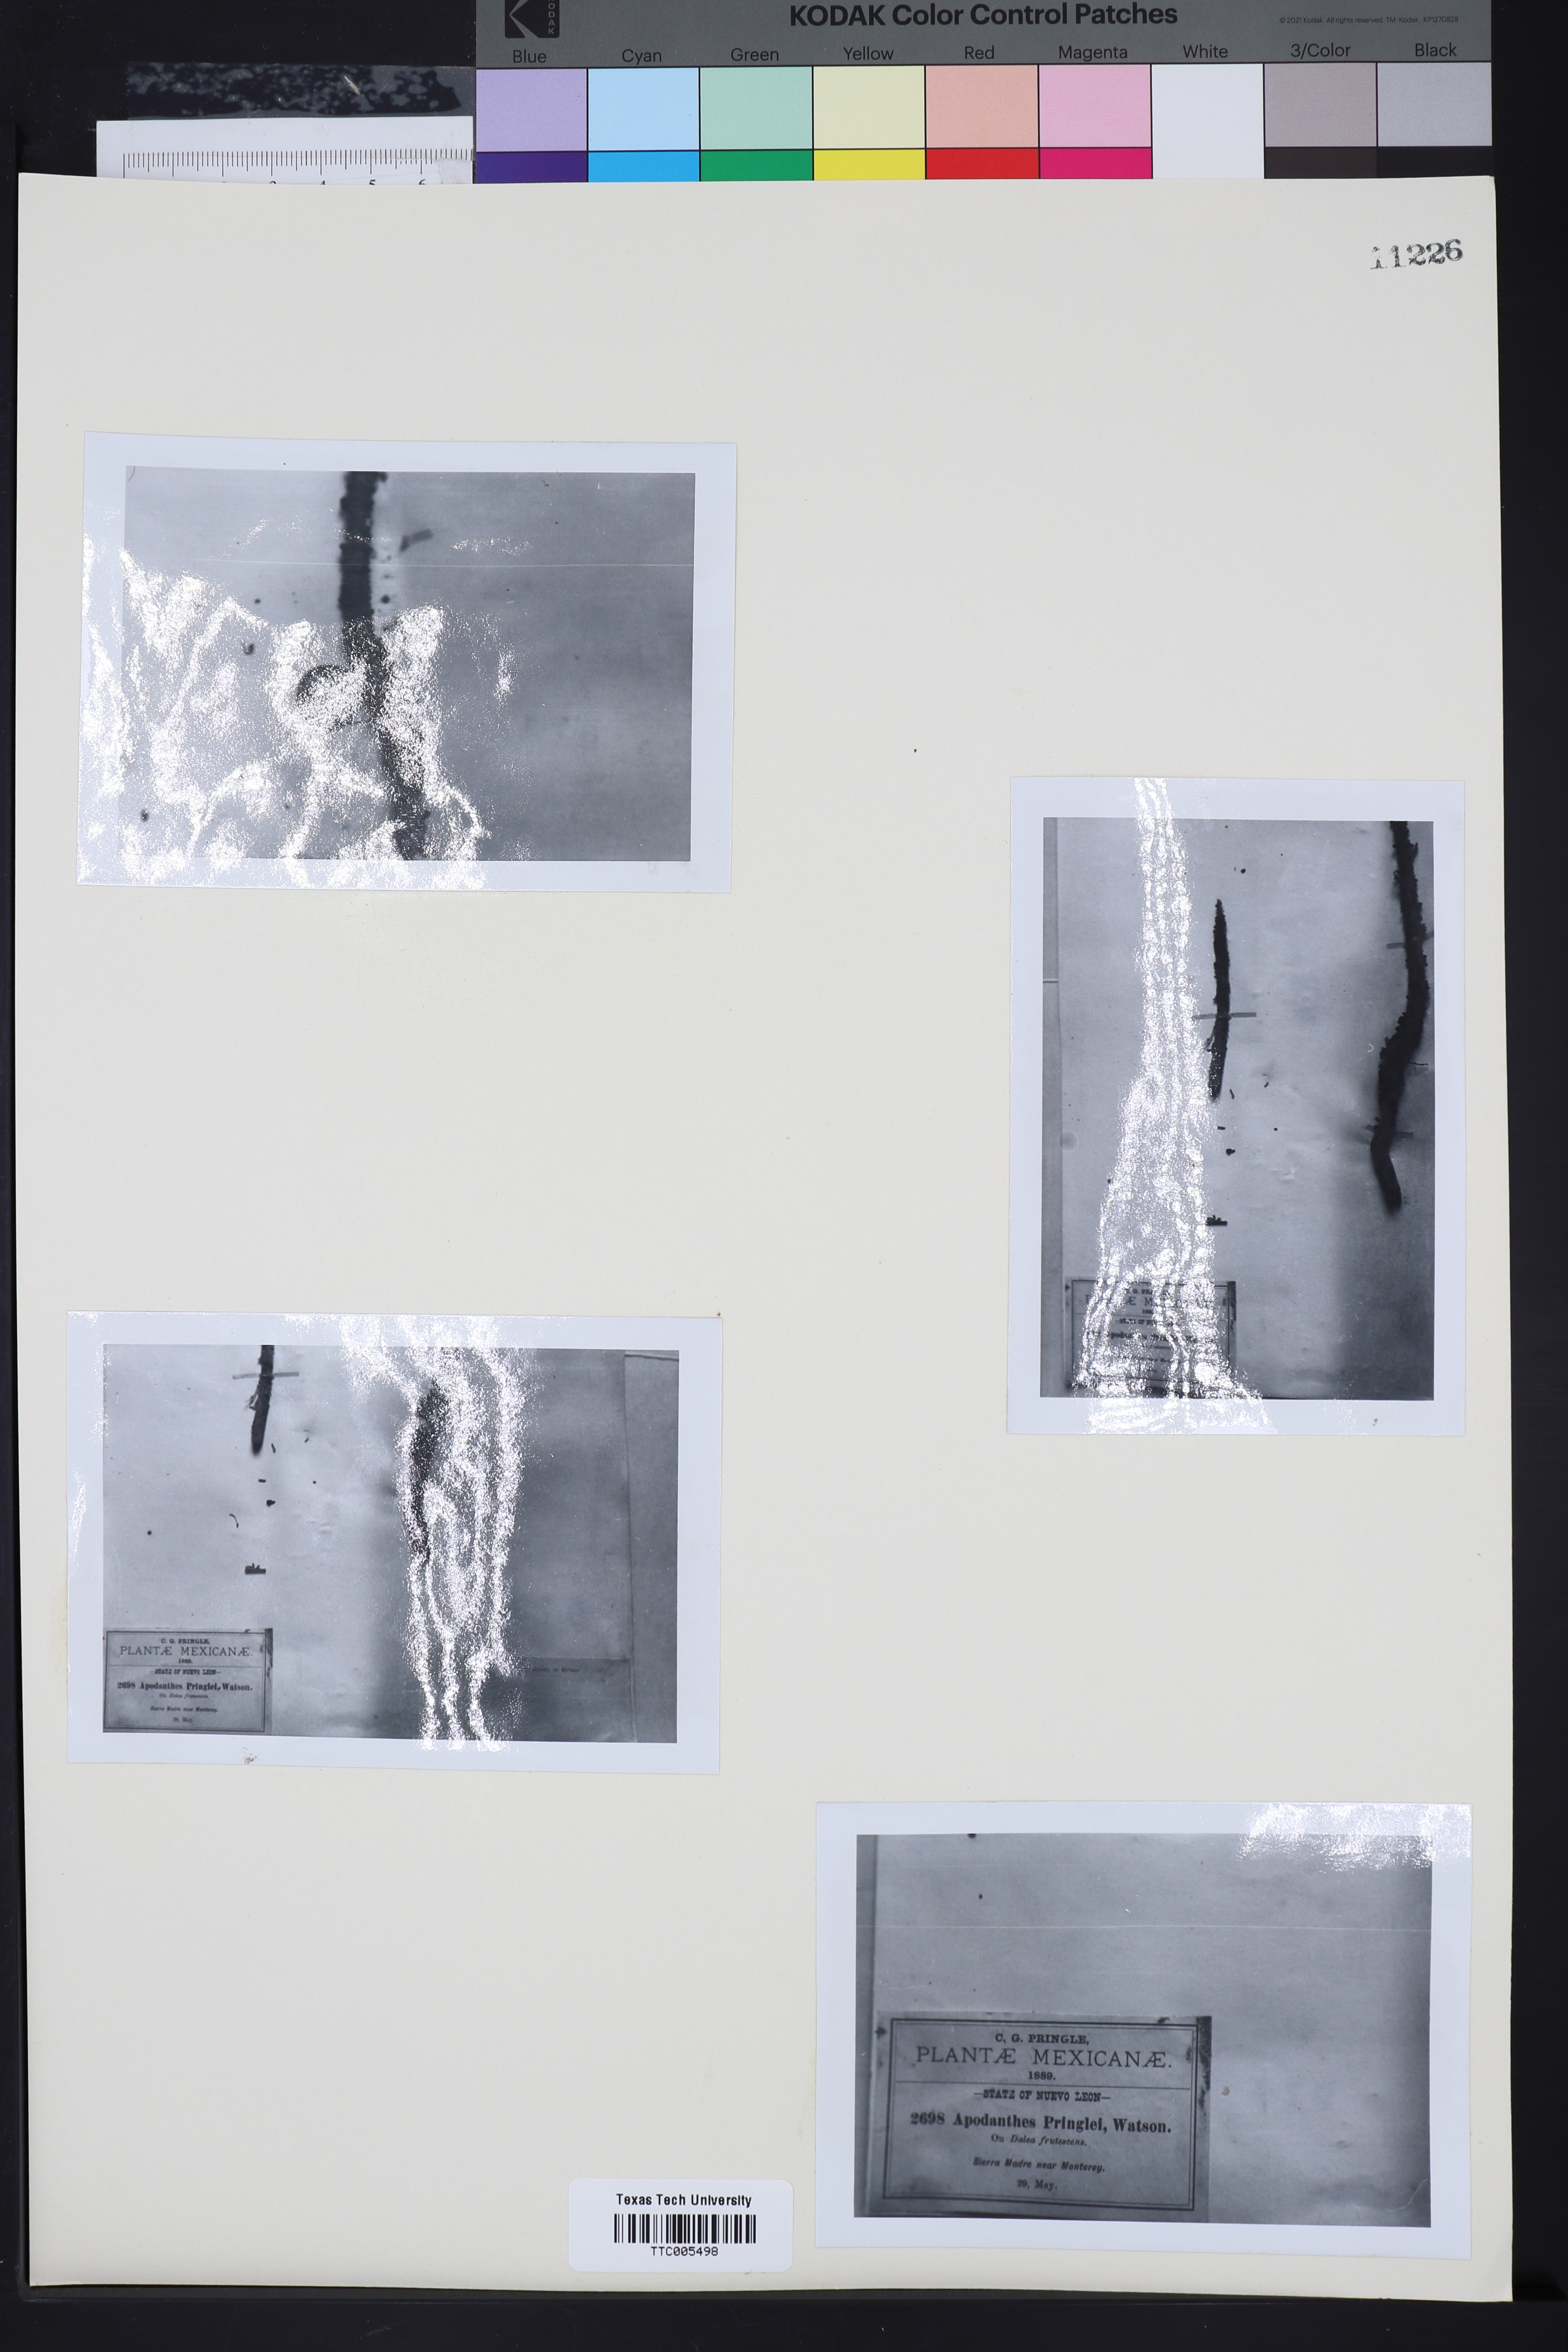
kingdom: Plantae
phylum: Tracheophyta
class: Magnoliopsida
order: Cucurbitales
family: Apodanthaceae
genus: Pilostyles
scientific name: Pilostyles thurberi
